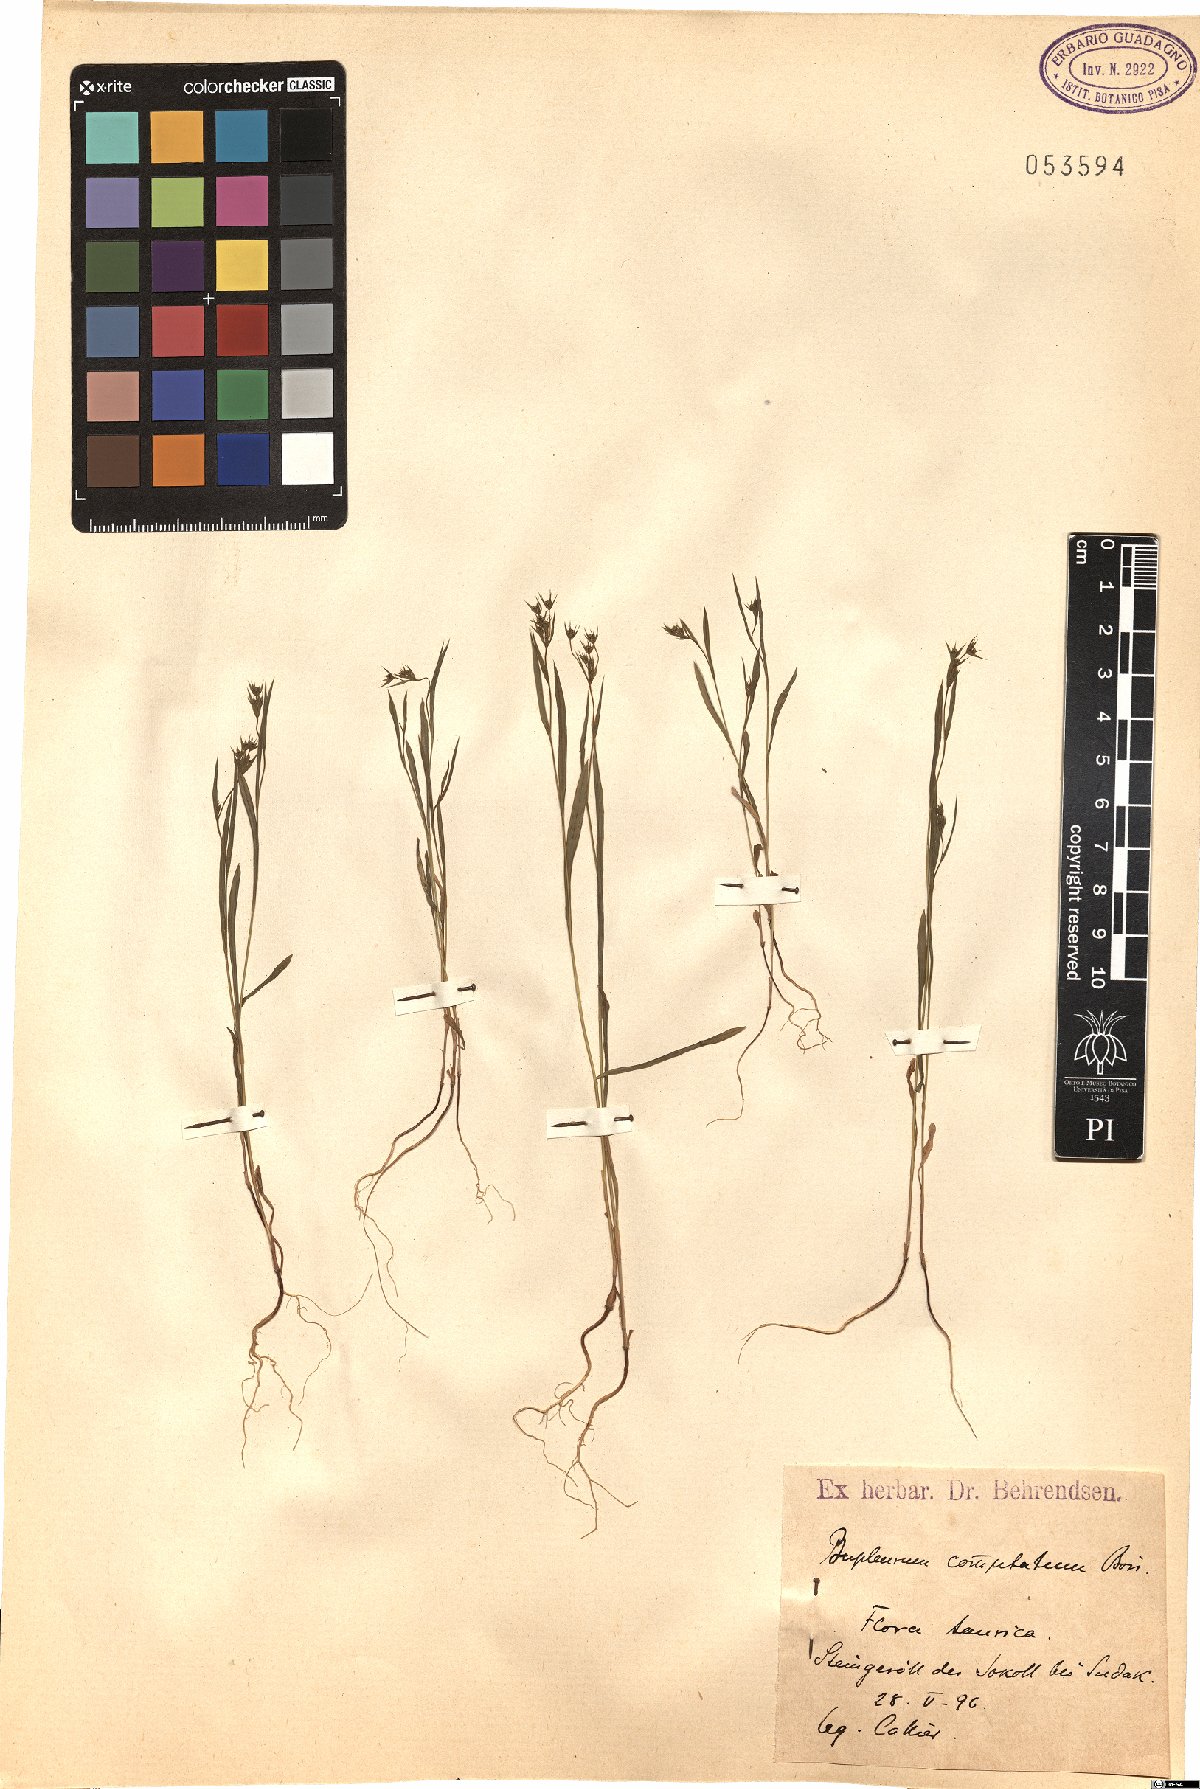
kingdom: Plantae
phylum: Tracheophyta
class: Magnoliopsida
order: Apiales
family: Apiaceae
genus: Bupleurum
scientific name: Bupleurum commutatum
